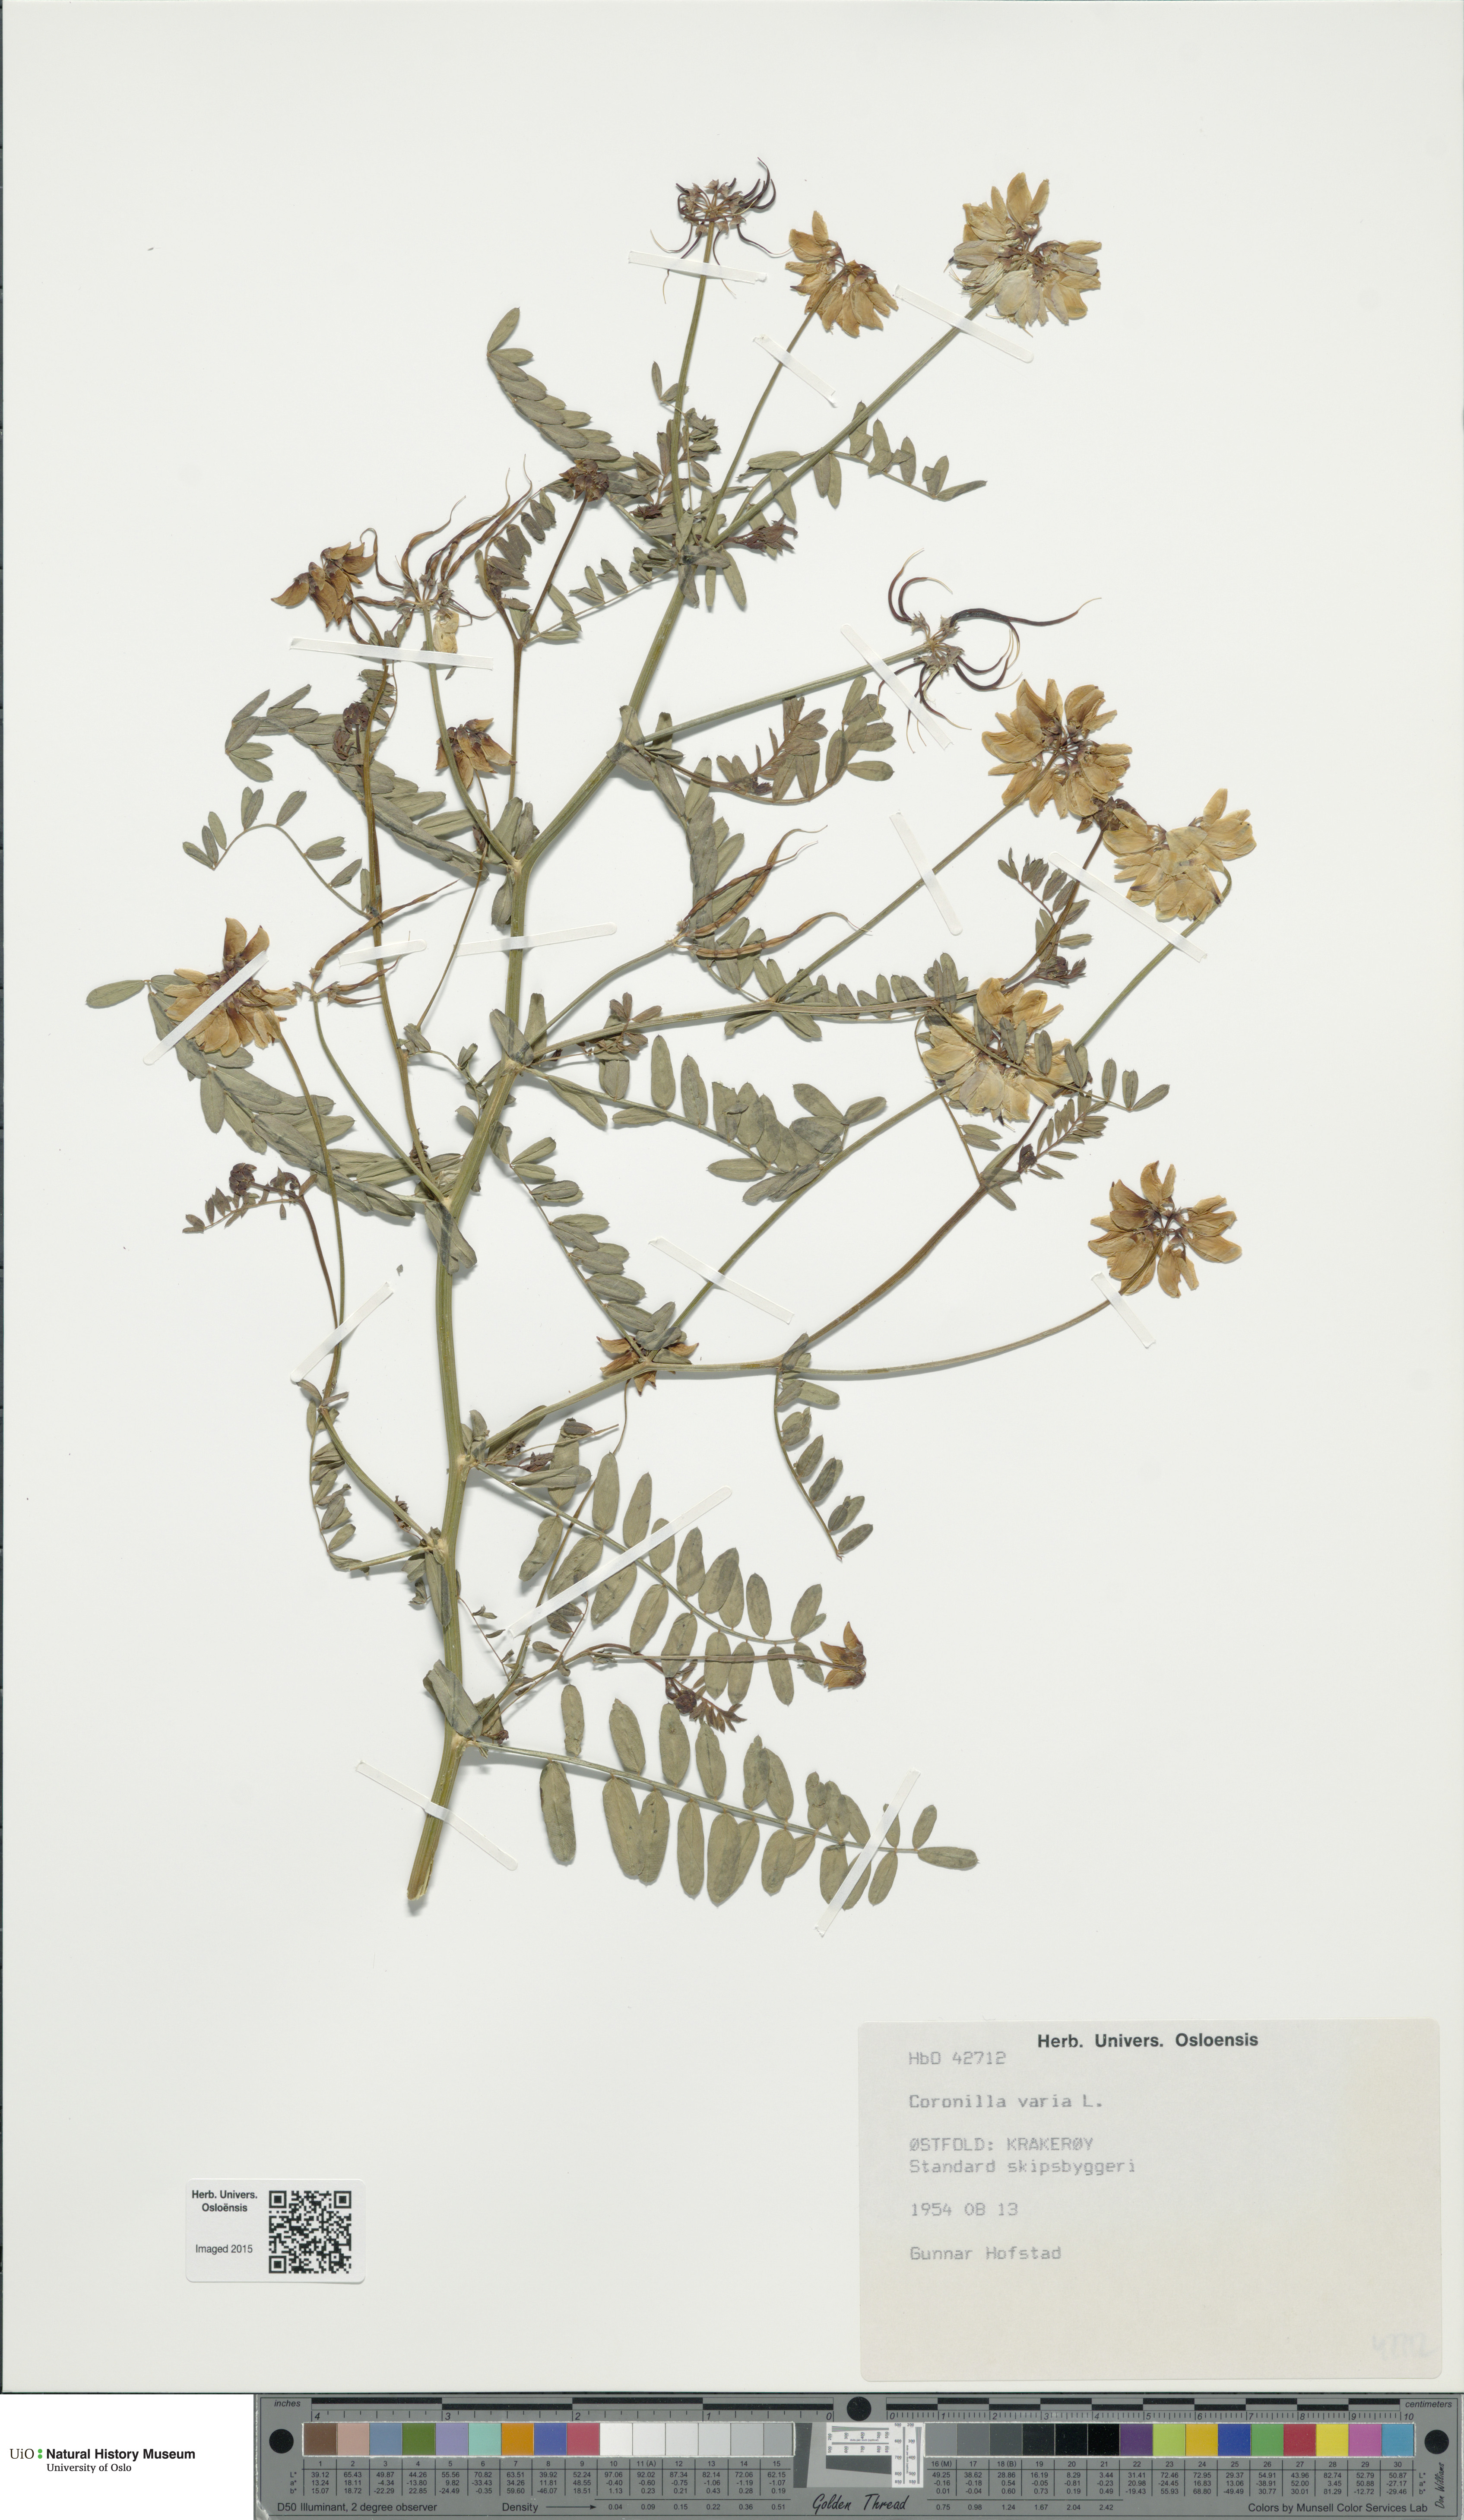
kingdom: Plantae
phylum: Tracheophyta
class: Magnoliopsida
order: Fabales
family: Fabaceae
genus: Coronilla
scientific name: Coronilla varia
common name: Crownvetch
